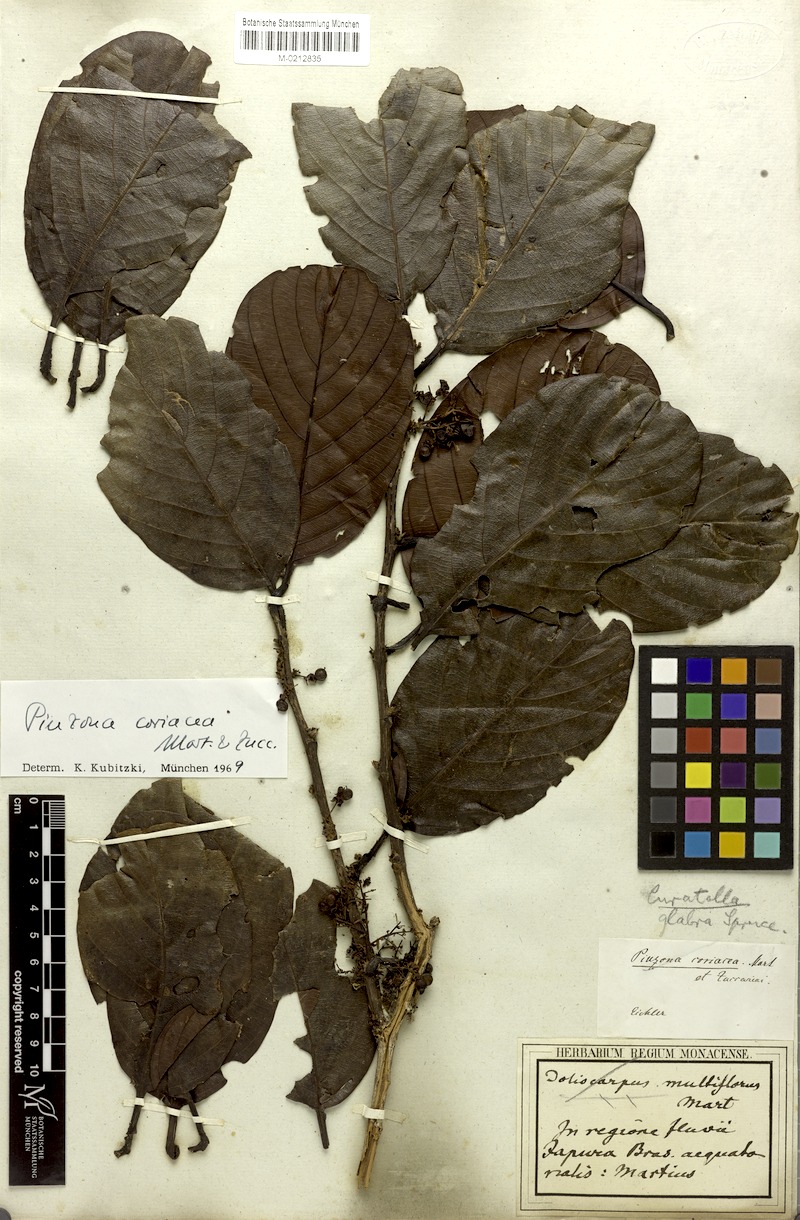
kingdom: Plantae
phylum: Tracheophyta
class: Magnoliopsida
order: Dilleniales
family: Dilleniaceae
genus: Pinzona
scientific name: Pinzona coriacea
